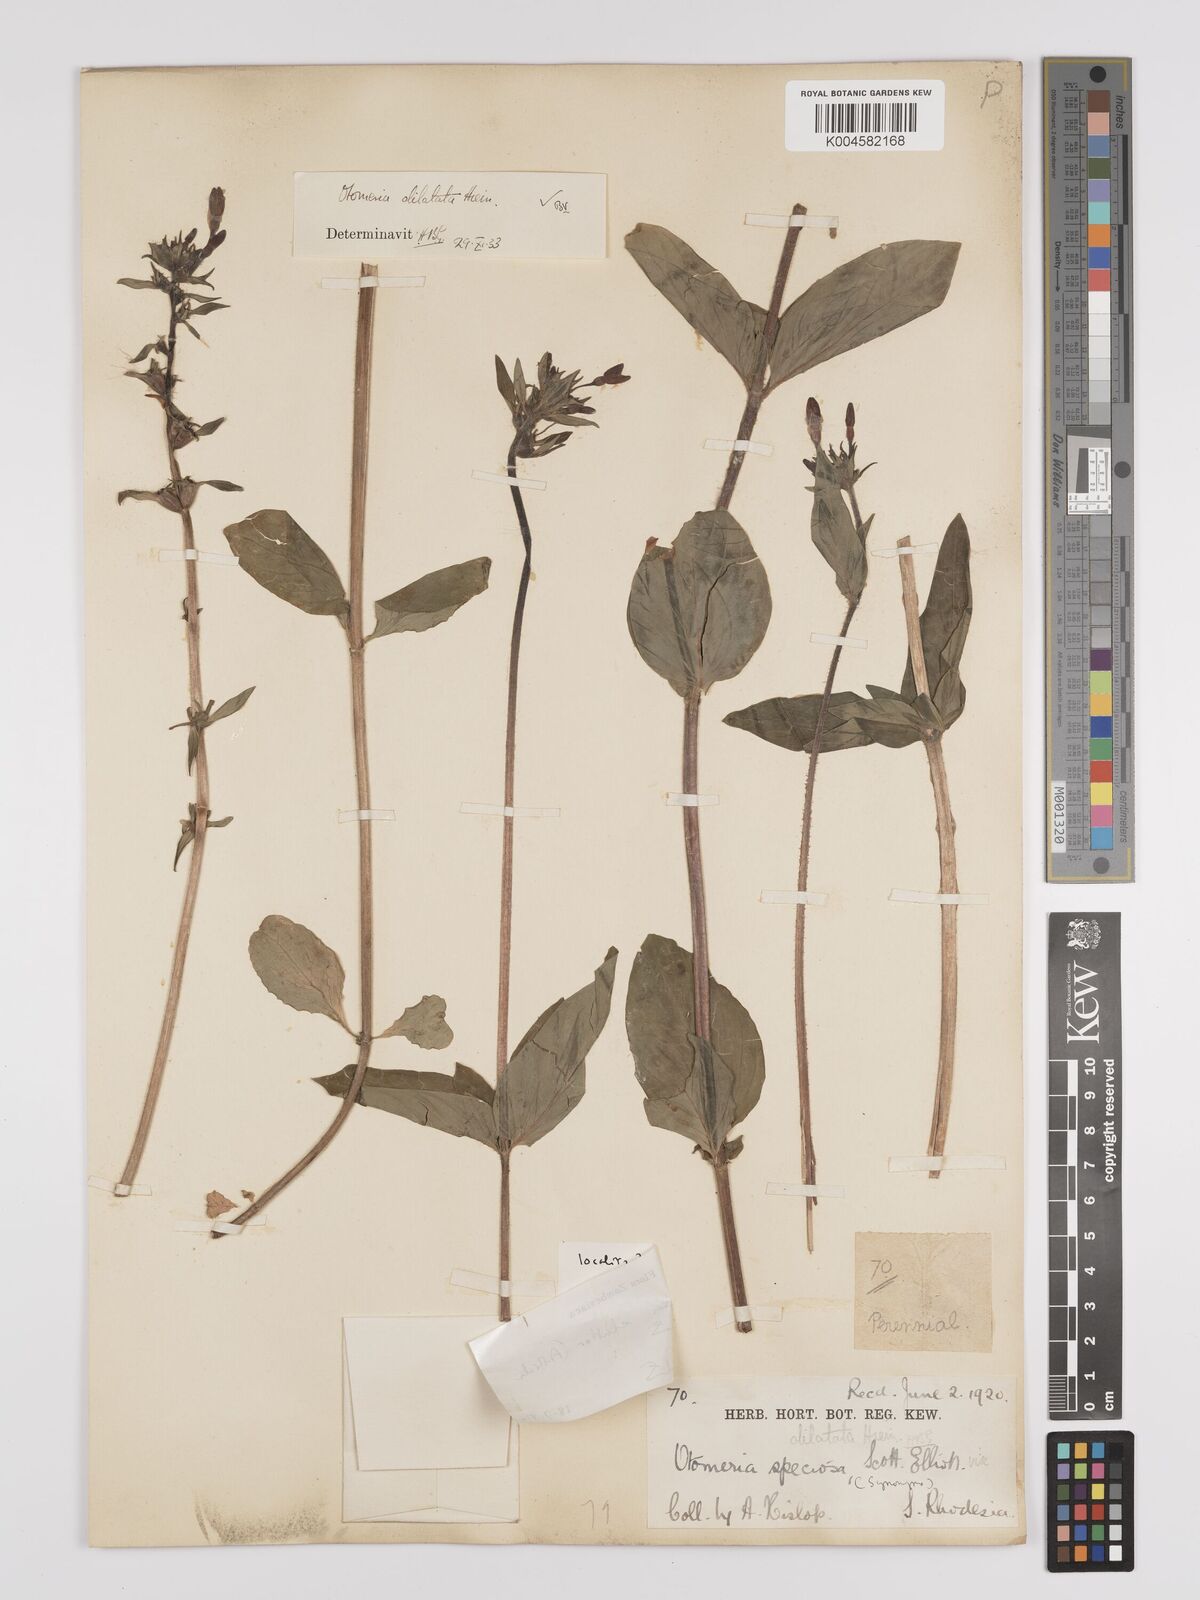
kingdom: Plantae
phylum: Tracheophyta
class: Magnoliopsida
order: Gentianales
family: Rubiaceae
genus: Otomeria
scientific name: Otomeria elatior
